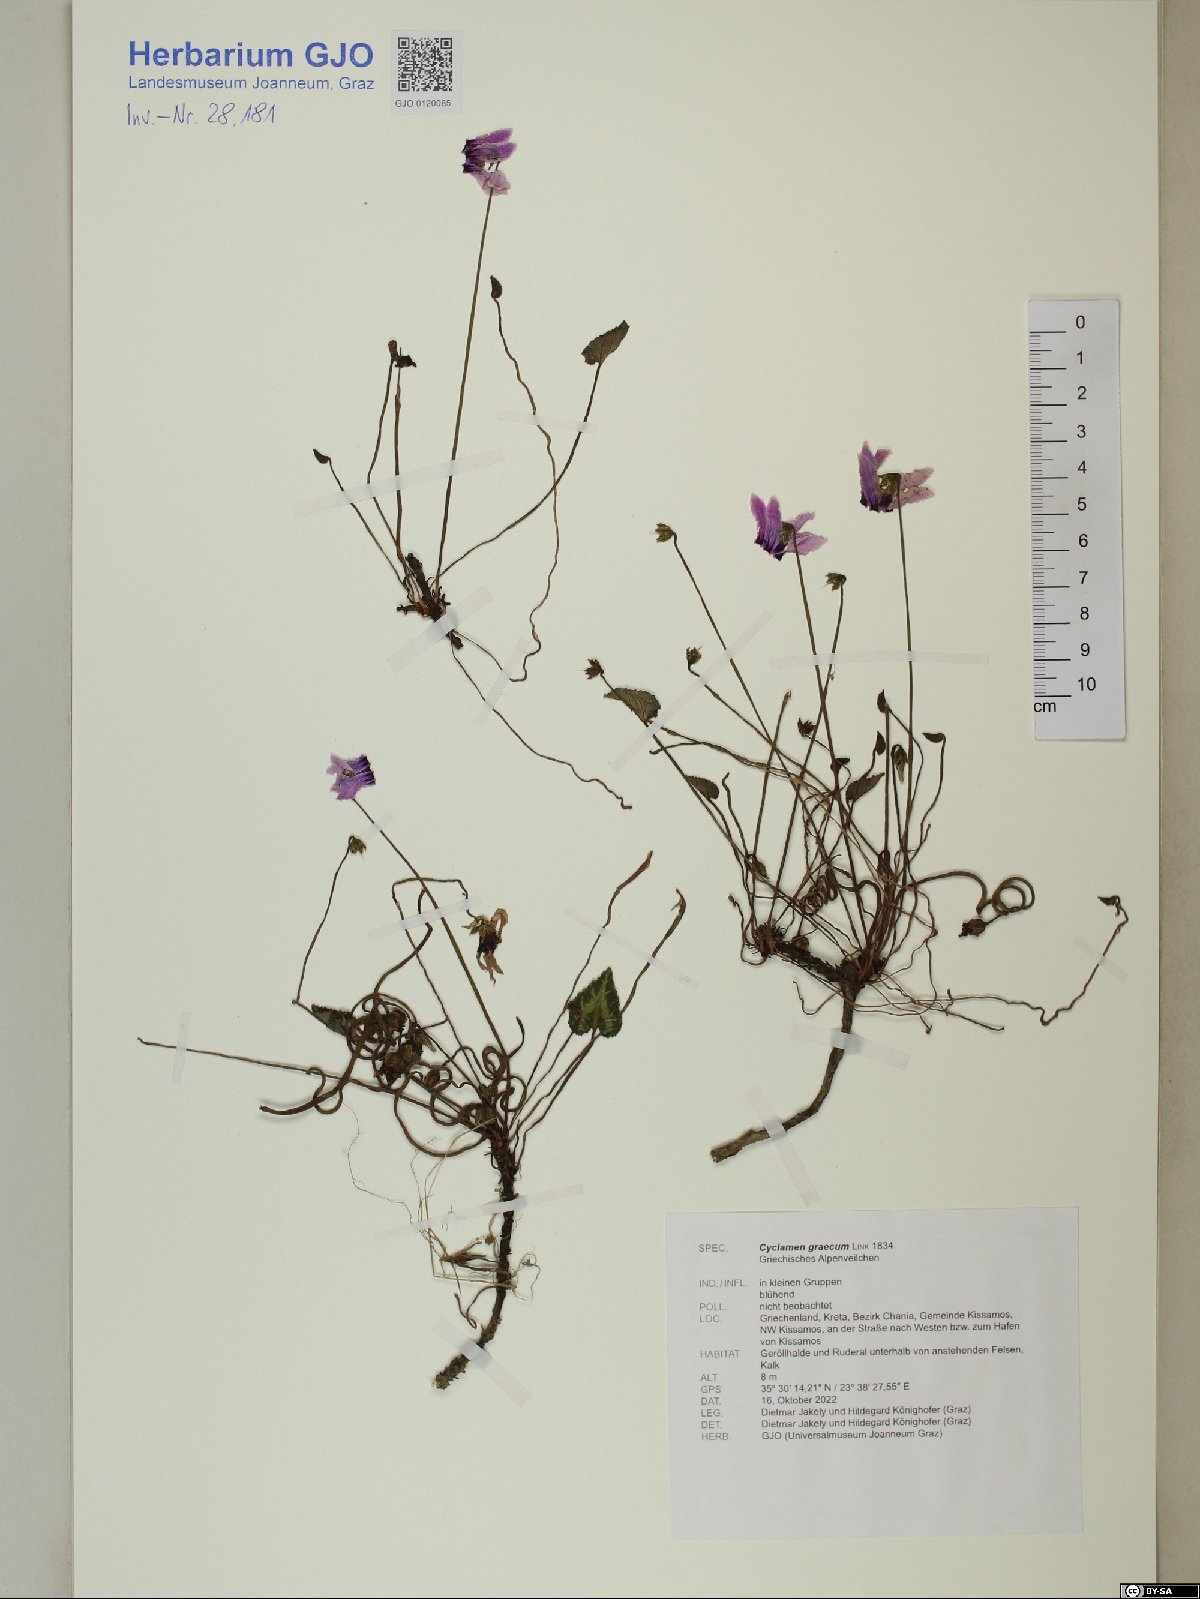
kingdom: Plantae
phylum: Tracheophyta
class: Magnoliopsida
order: Ericales
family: Primulaceae
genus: Cyclamen
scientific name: Cyclamen graecum
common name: Greek cyclamen
